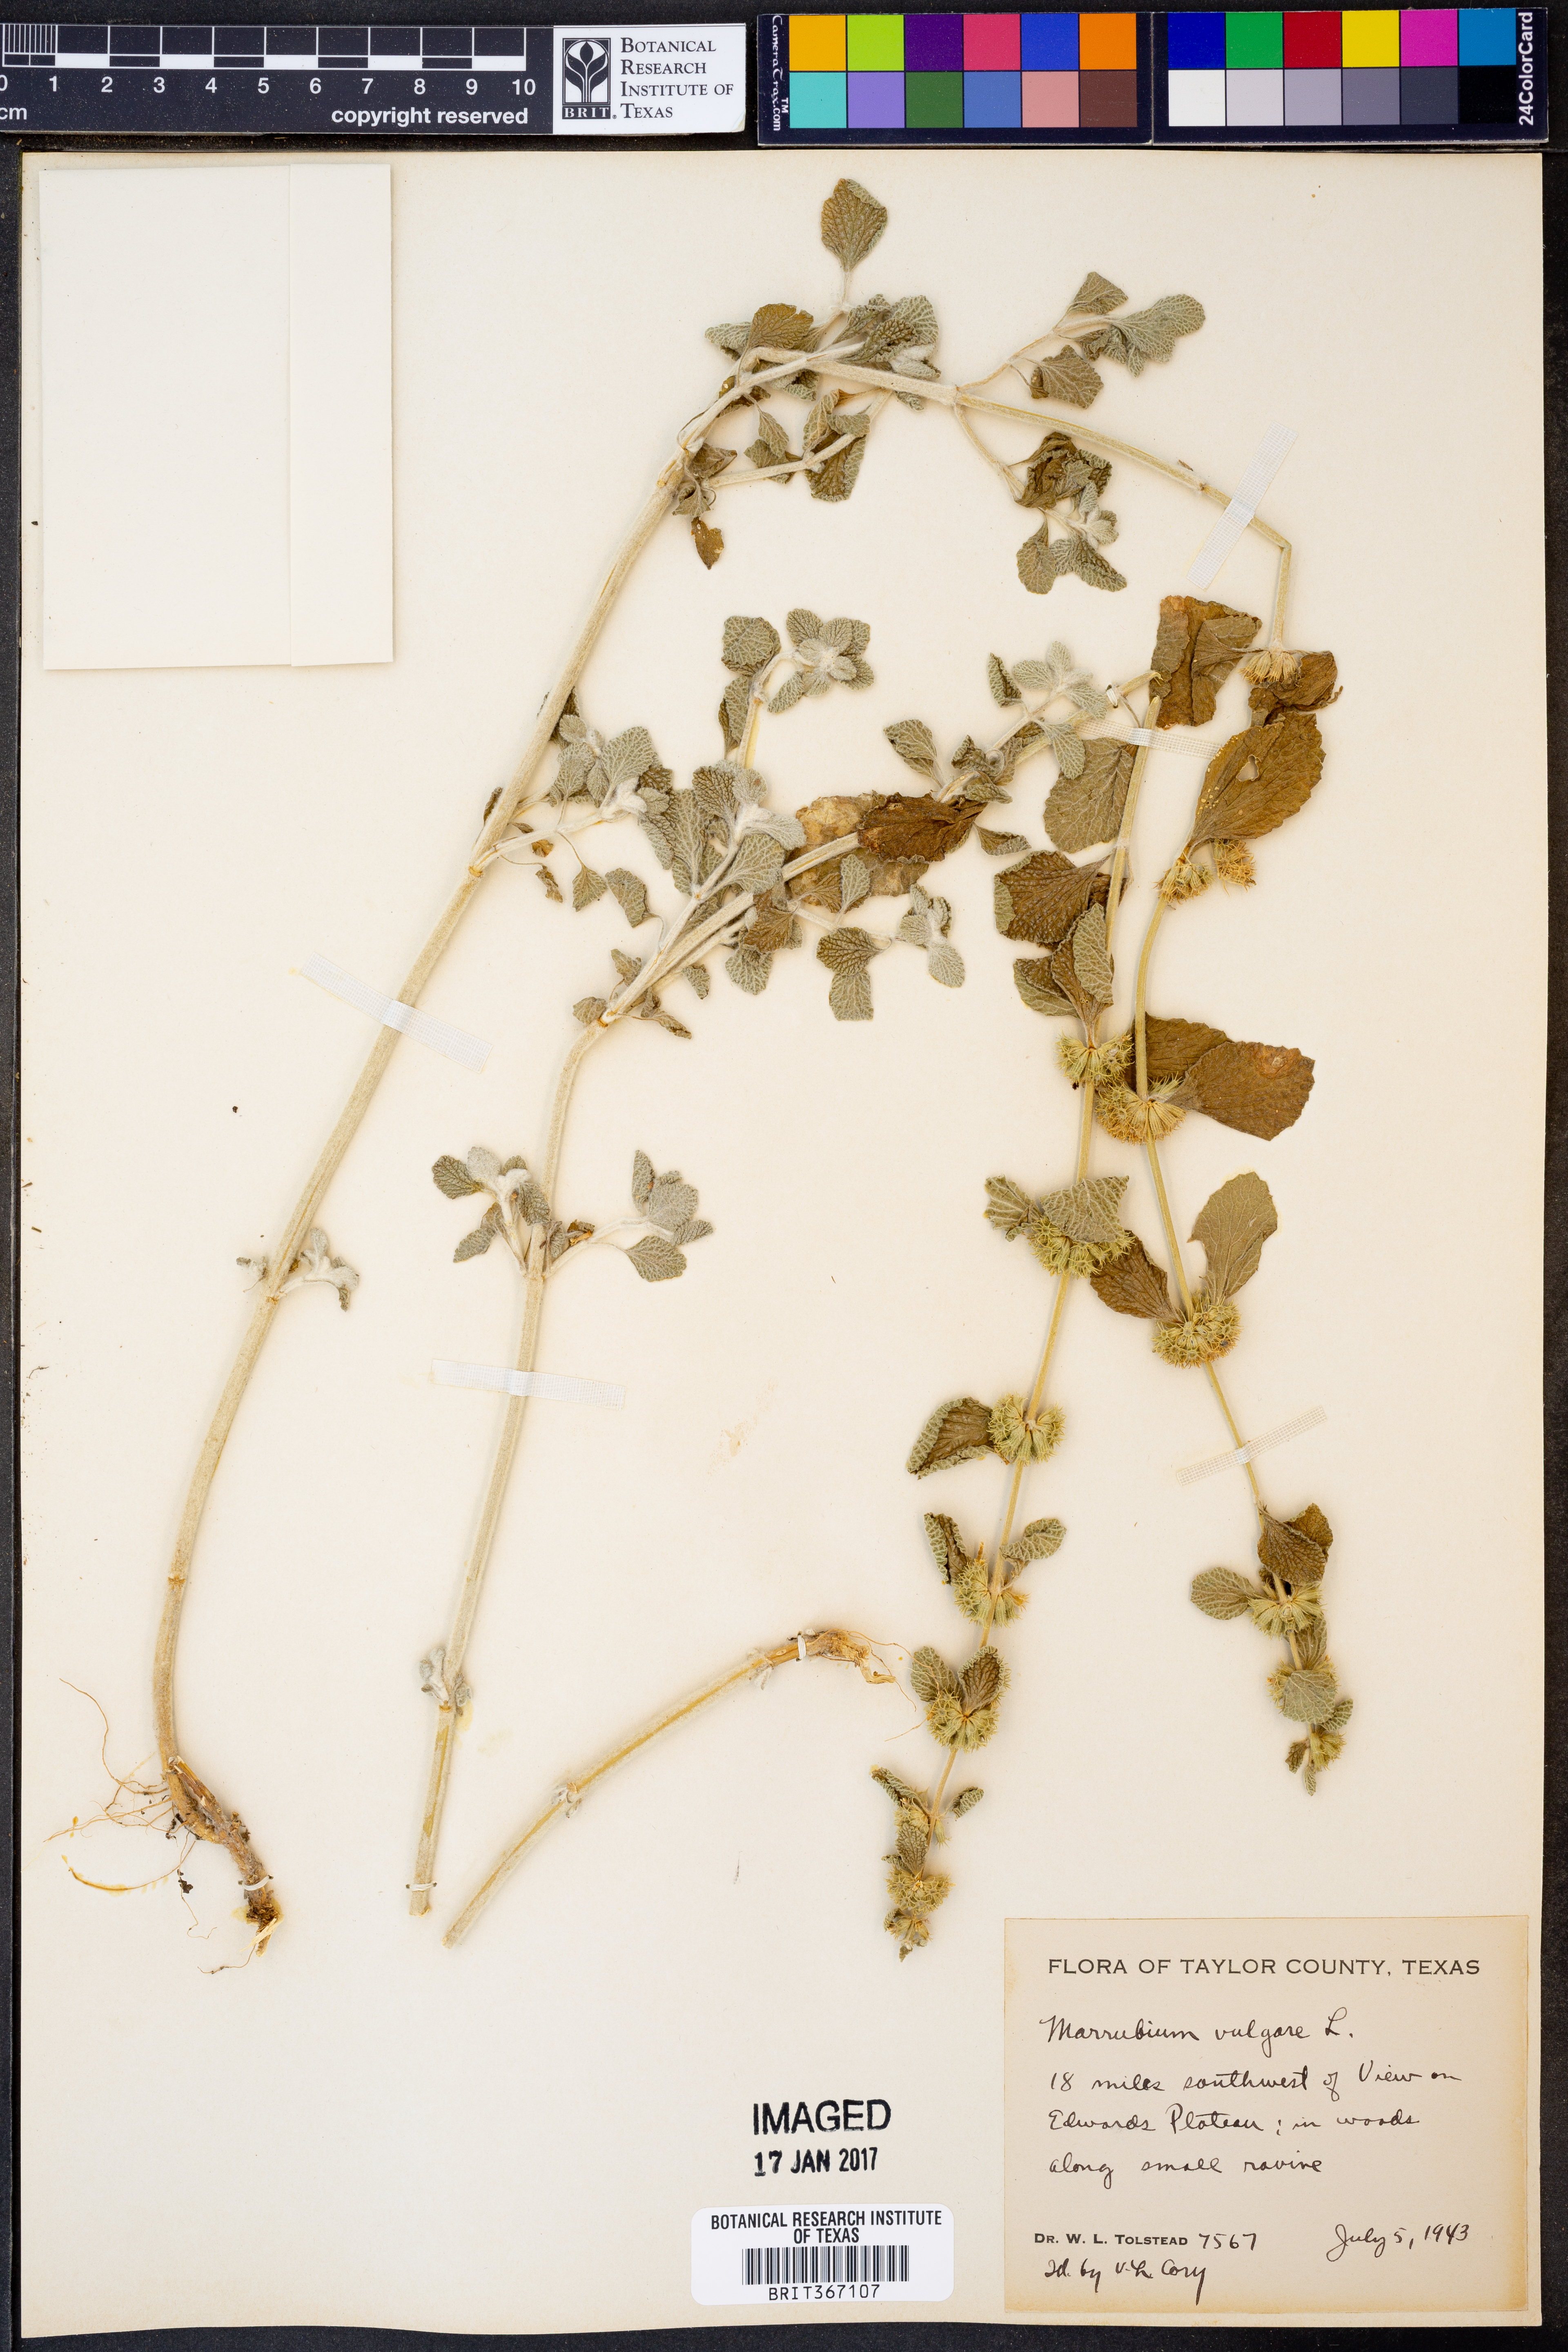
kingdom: Plantae
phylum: Tracheophyta
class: Magnoliopsida
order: Lamiales
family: Lamiaceae
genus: Marrubium
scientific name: Marrubium vulgare
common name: Horehound
